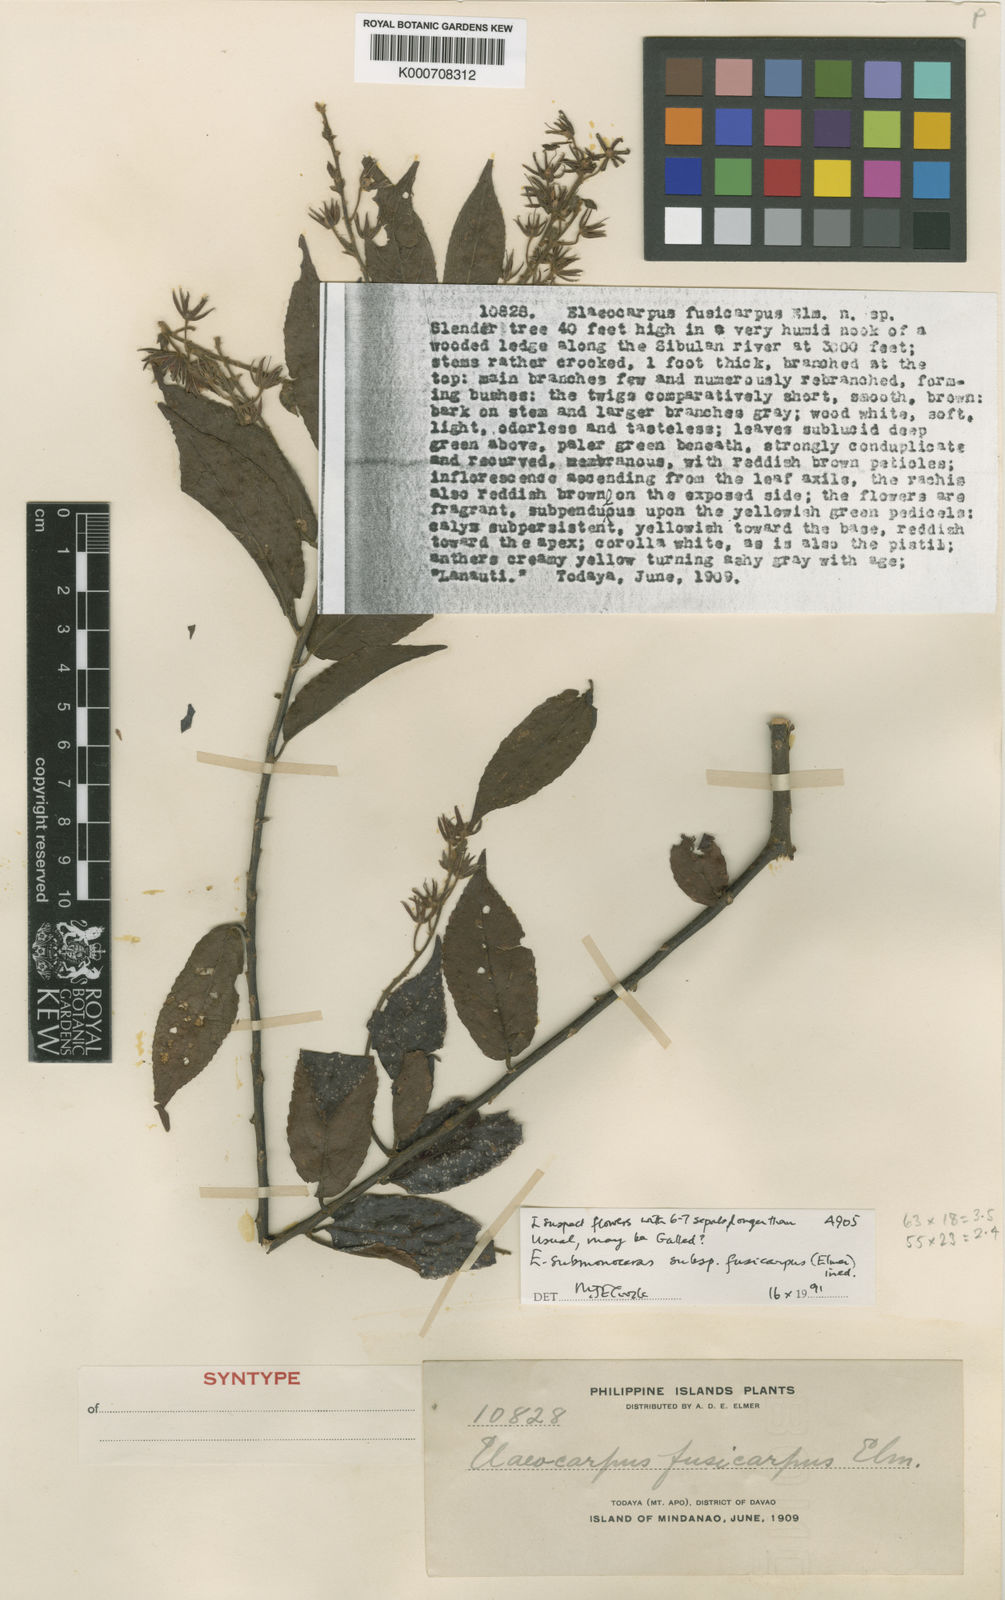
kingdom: Plantae
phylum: Tracheophyta
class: Magnoliopsida
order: Oxalidales
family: Elaeocarpaceae
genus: Elaeocarpus
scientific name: Elaeocarpus submonoceras
